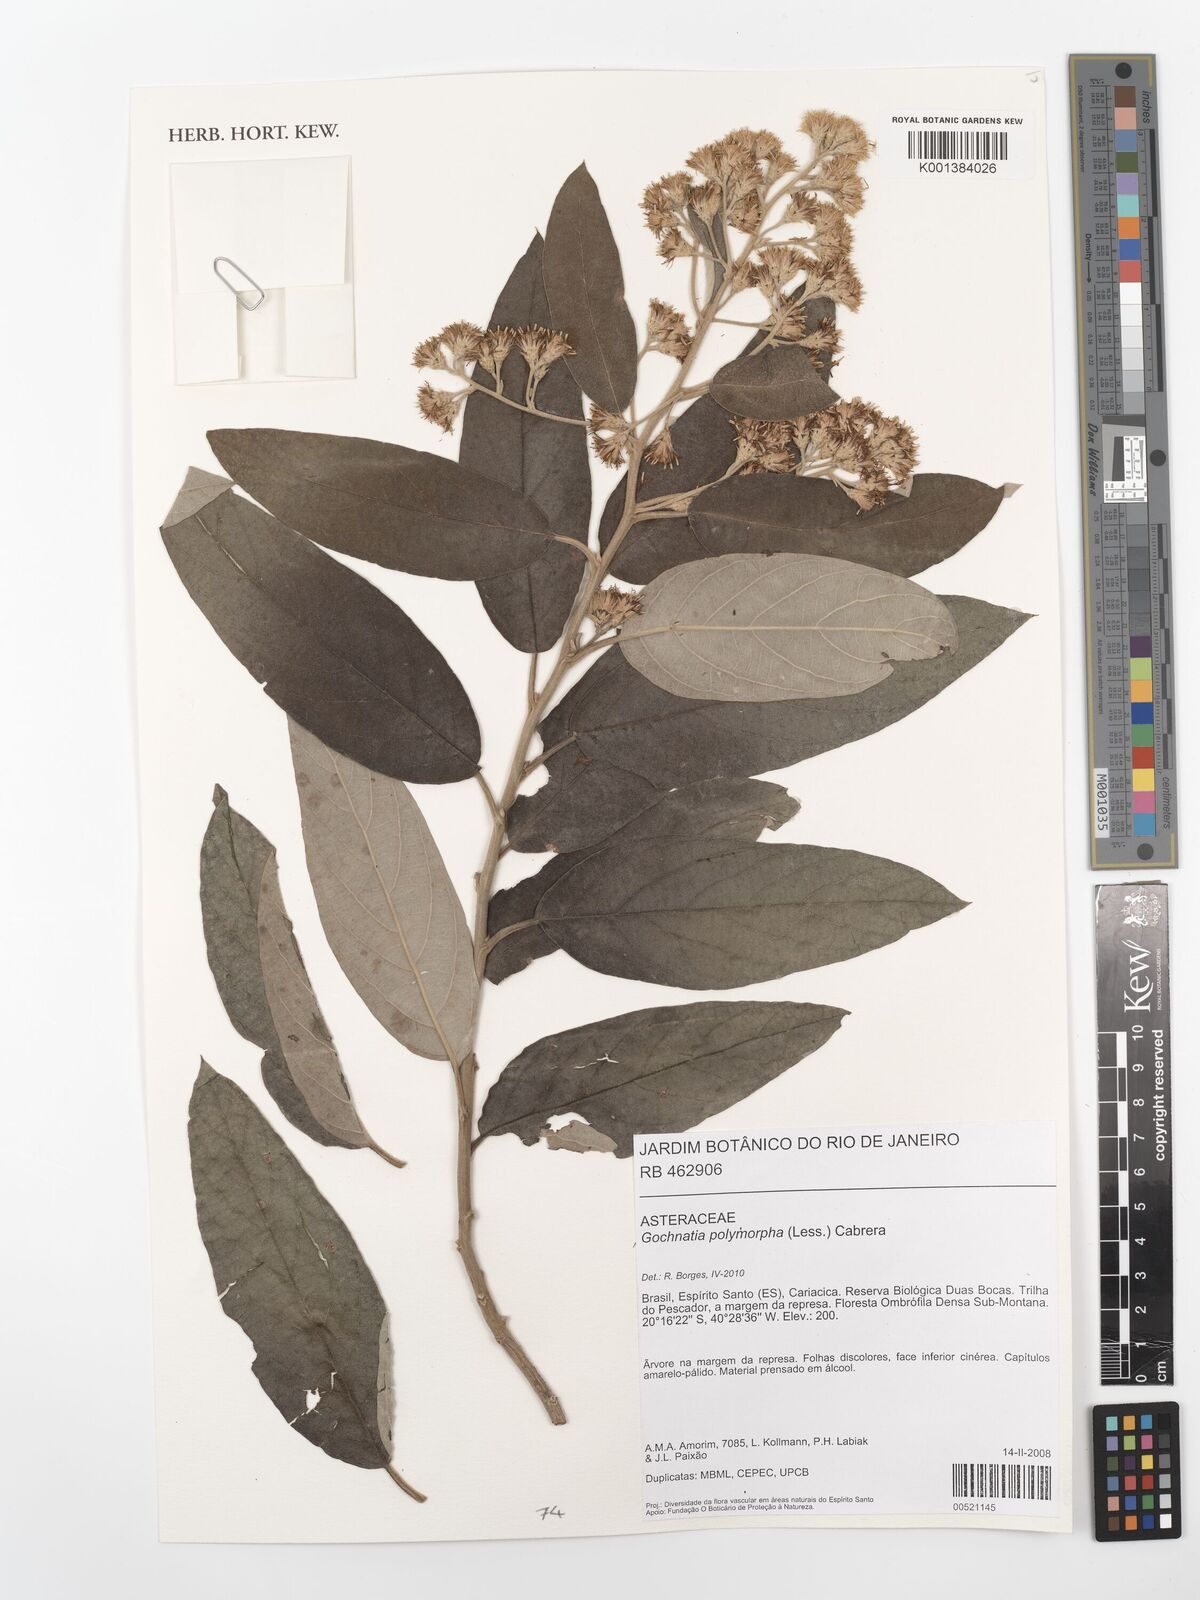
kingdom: Plantae
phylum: Tracheophyta
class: Magnoliopsida
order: Asterales
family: Asteraceae
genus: Moquiniastrum
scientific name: Moquiniastrum polymorphum
